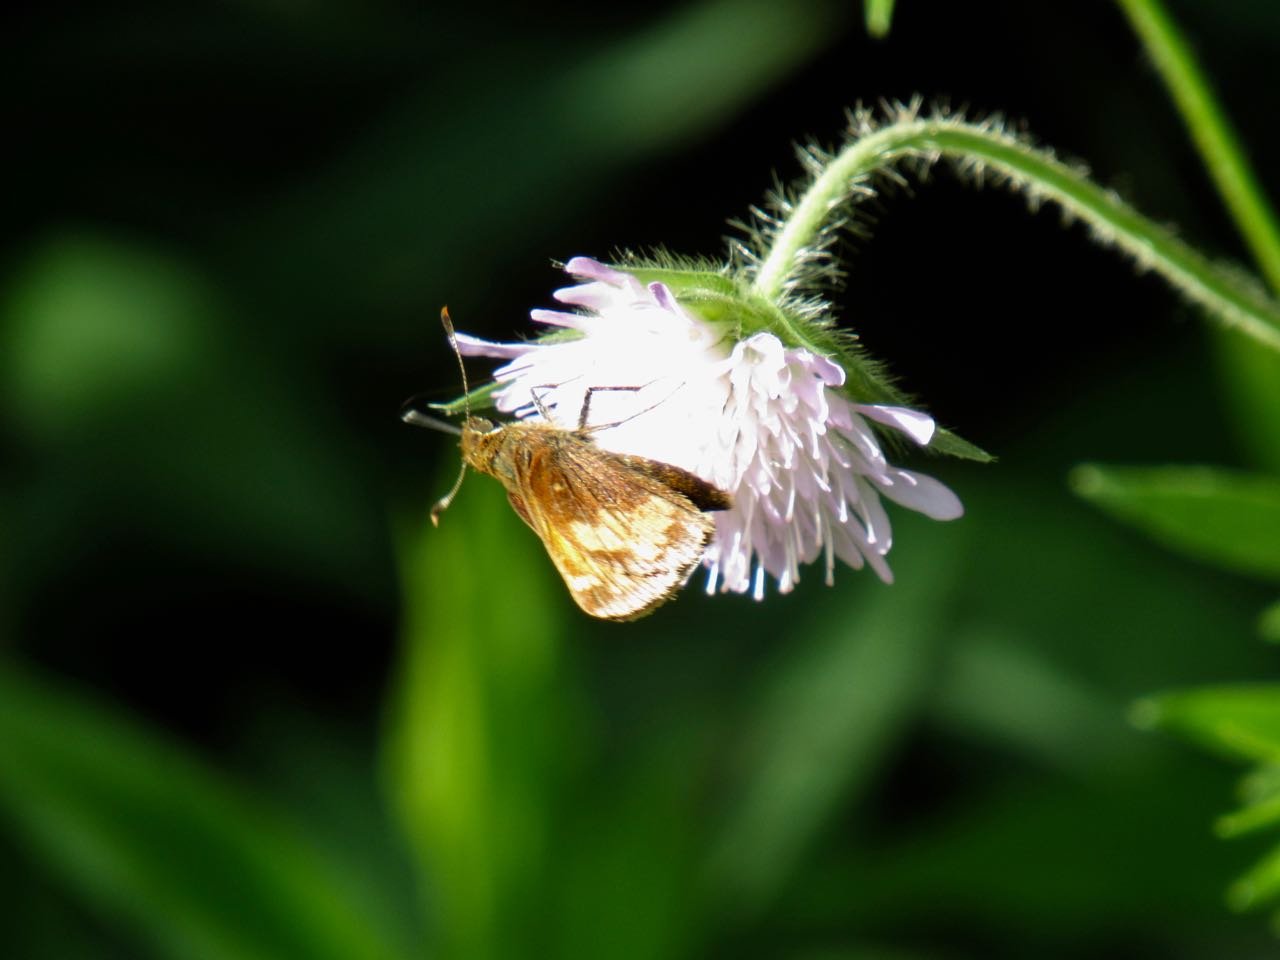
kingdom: Animalia
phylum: Arthropoda
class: Insecta
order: Lepidoptera
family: Hesperiidae
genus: Lon
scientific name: Lon hobomok
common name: Hobomok Skipper
